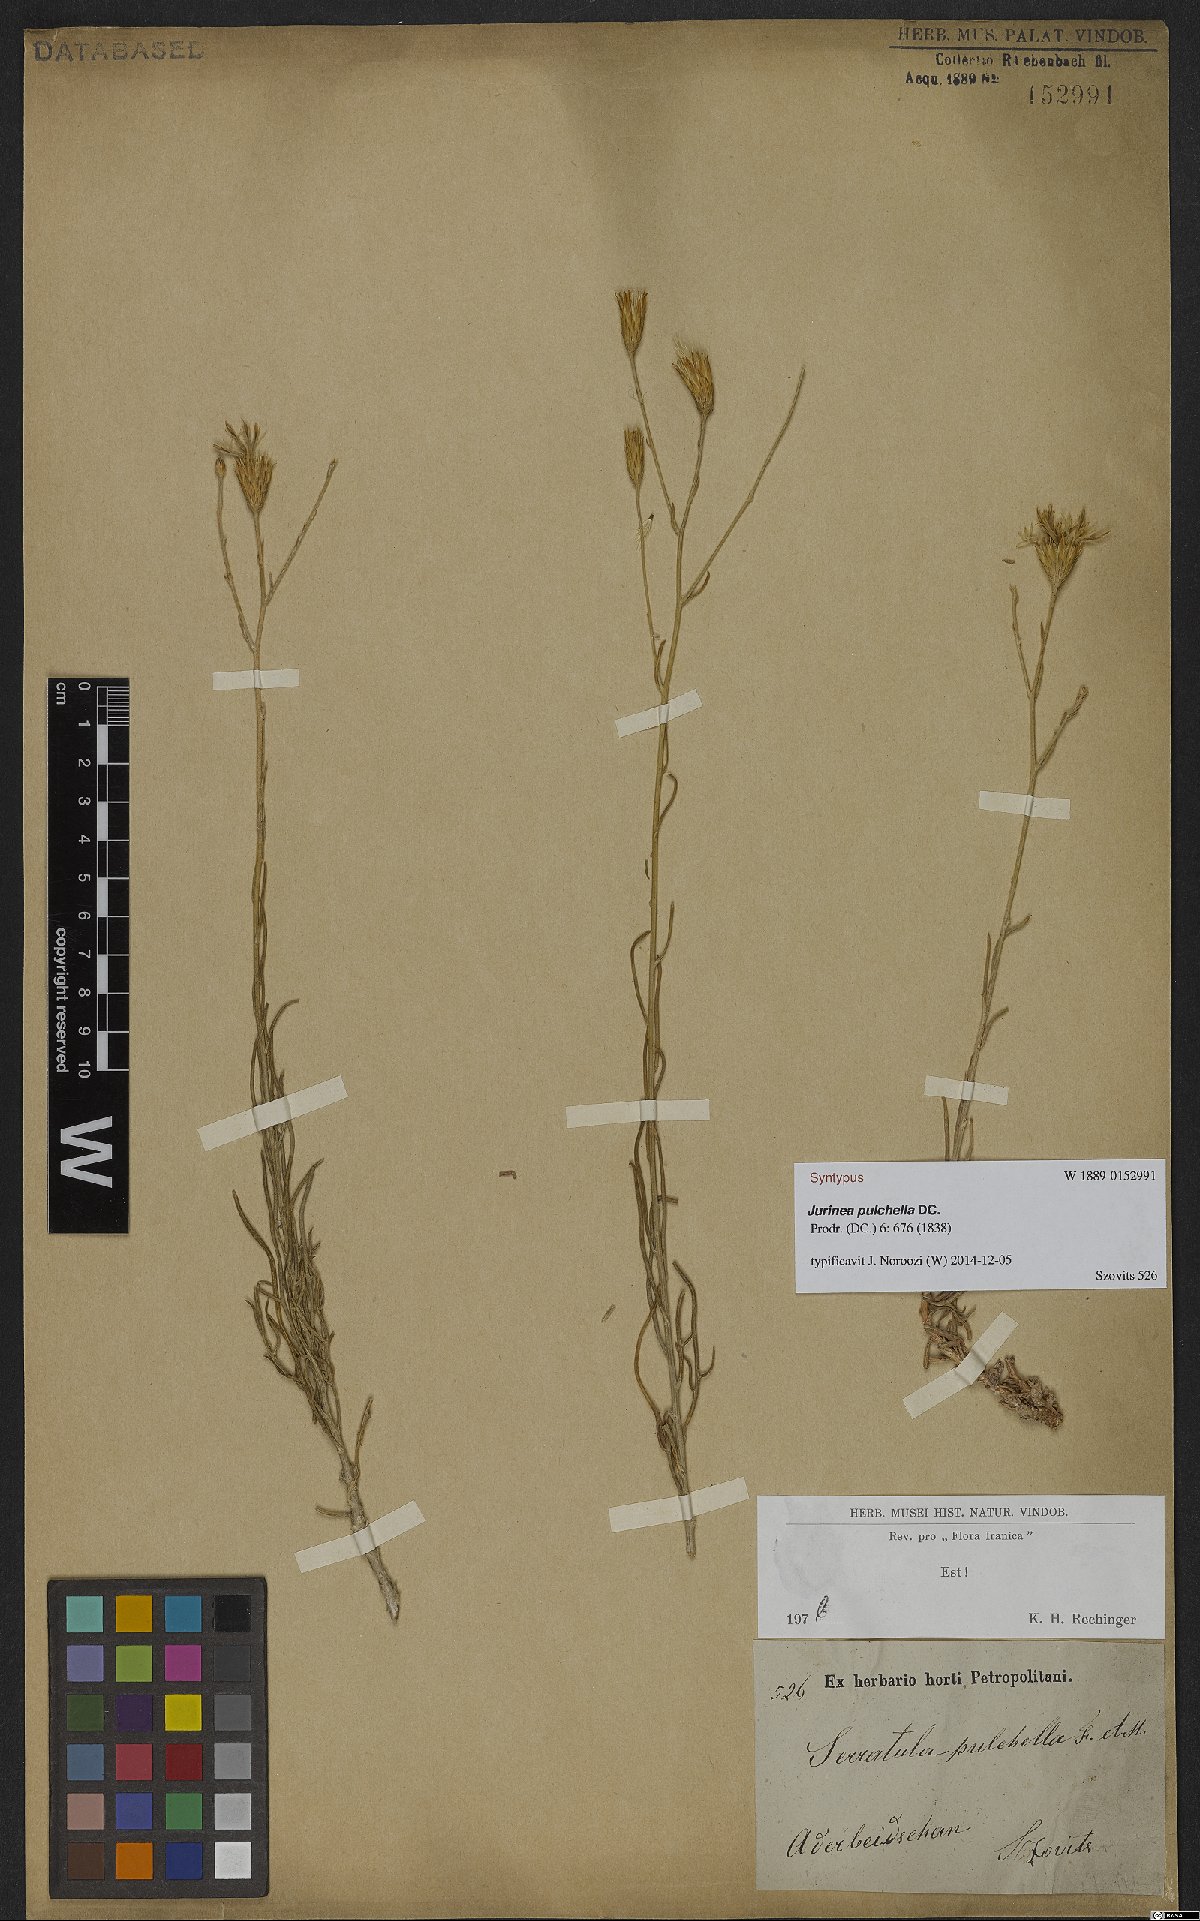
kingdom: Plantae
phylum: Tracheophyta
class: Magnoliopsida
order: Asterales
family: Asteraceae
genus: Jurinea
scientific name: Jurinea pulchella
